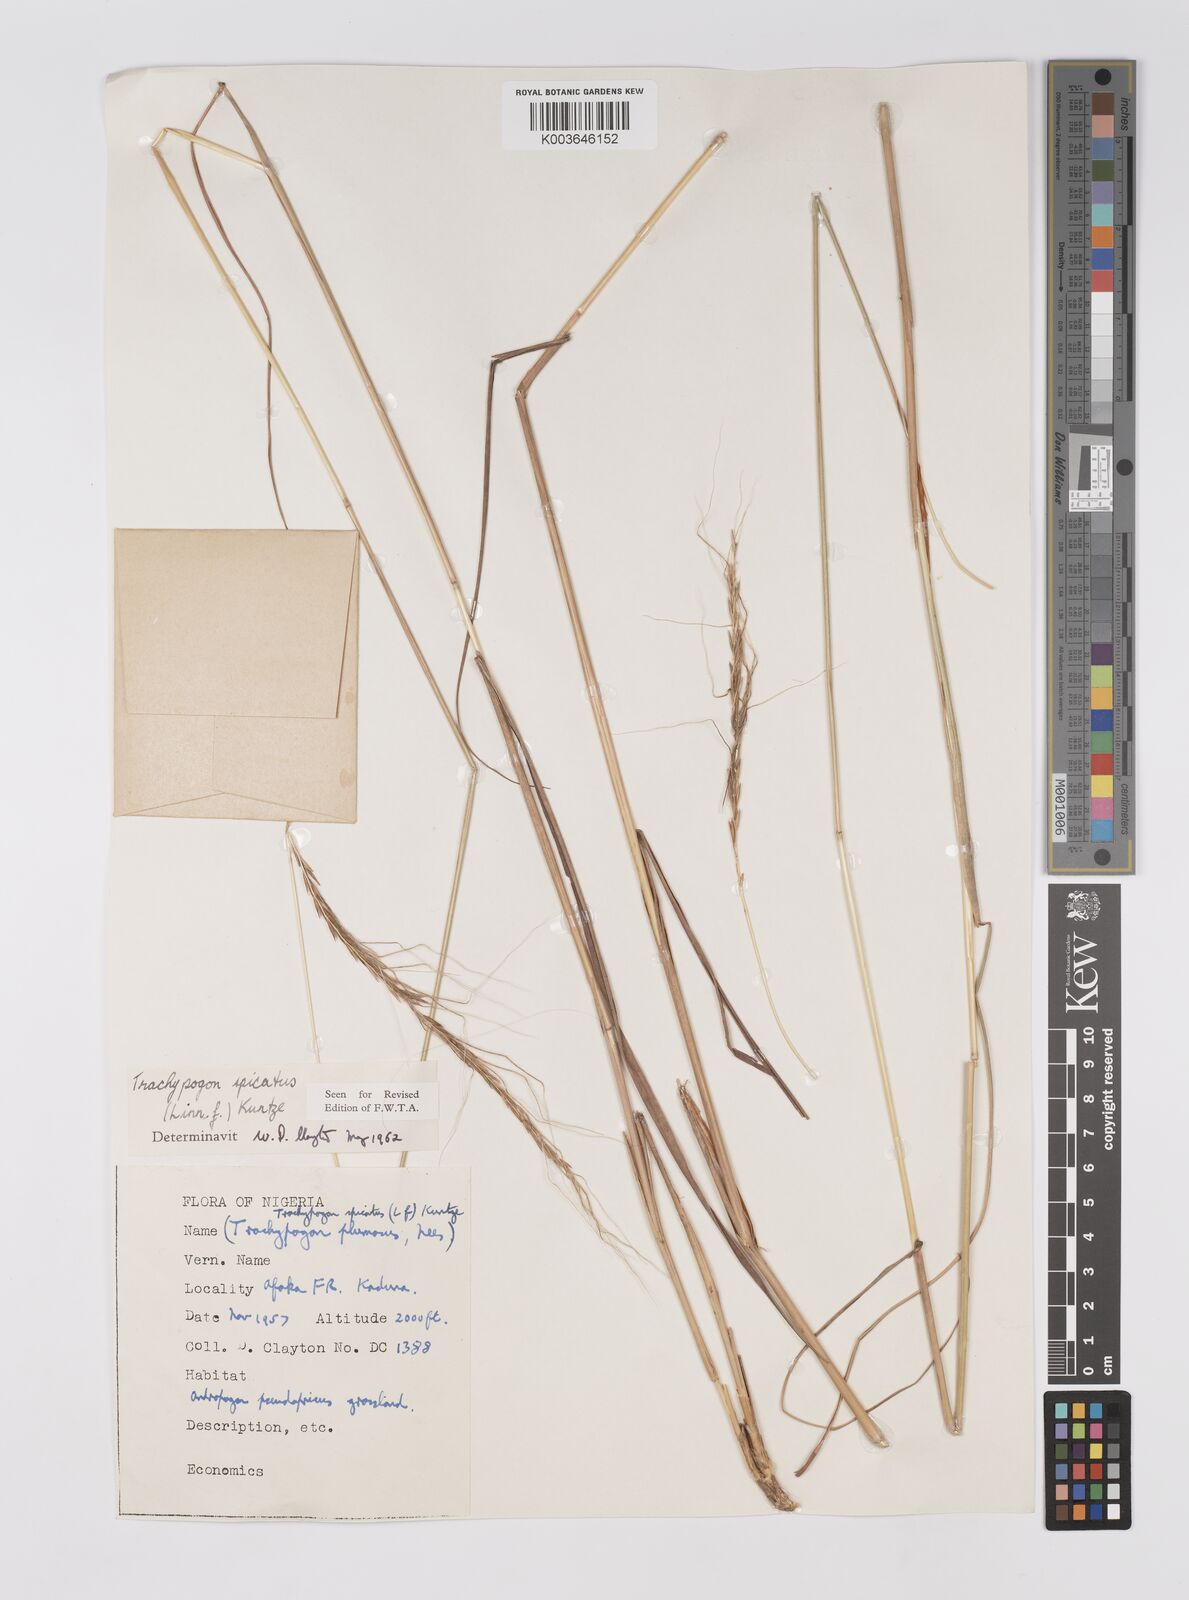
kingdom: Plantae
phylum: Tracheophyta
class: Liliopsida
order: Poales
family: Poaceae
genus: Trachypogon
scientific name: Trachypogon spicatus
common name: Crinkle-awn
